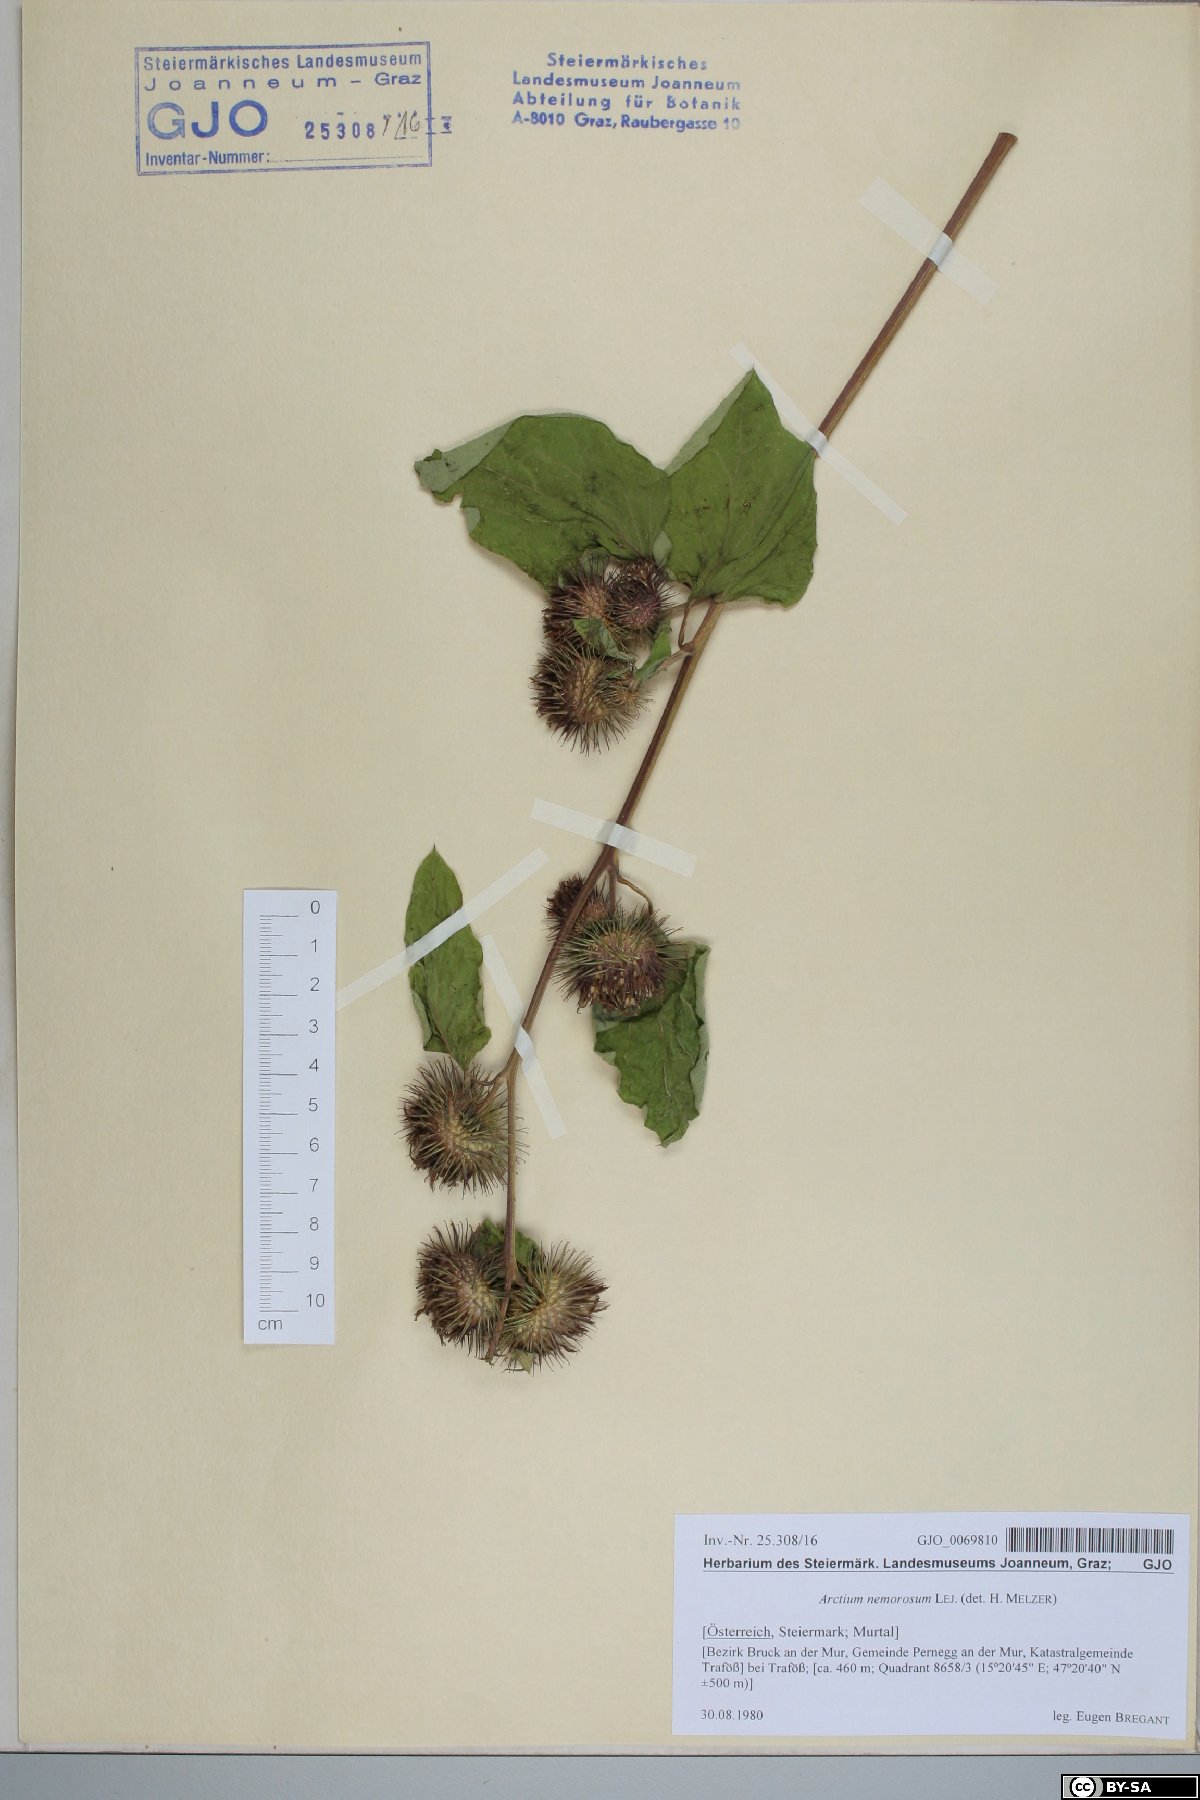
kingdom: Plantae
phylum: Tracheophyta
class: Magnoliopsida
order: Asterales
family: Asteraceae
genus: Arctium
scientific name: Arctium nemorosum
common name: Wood burdock
